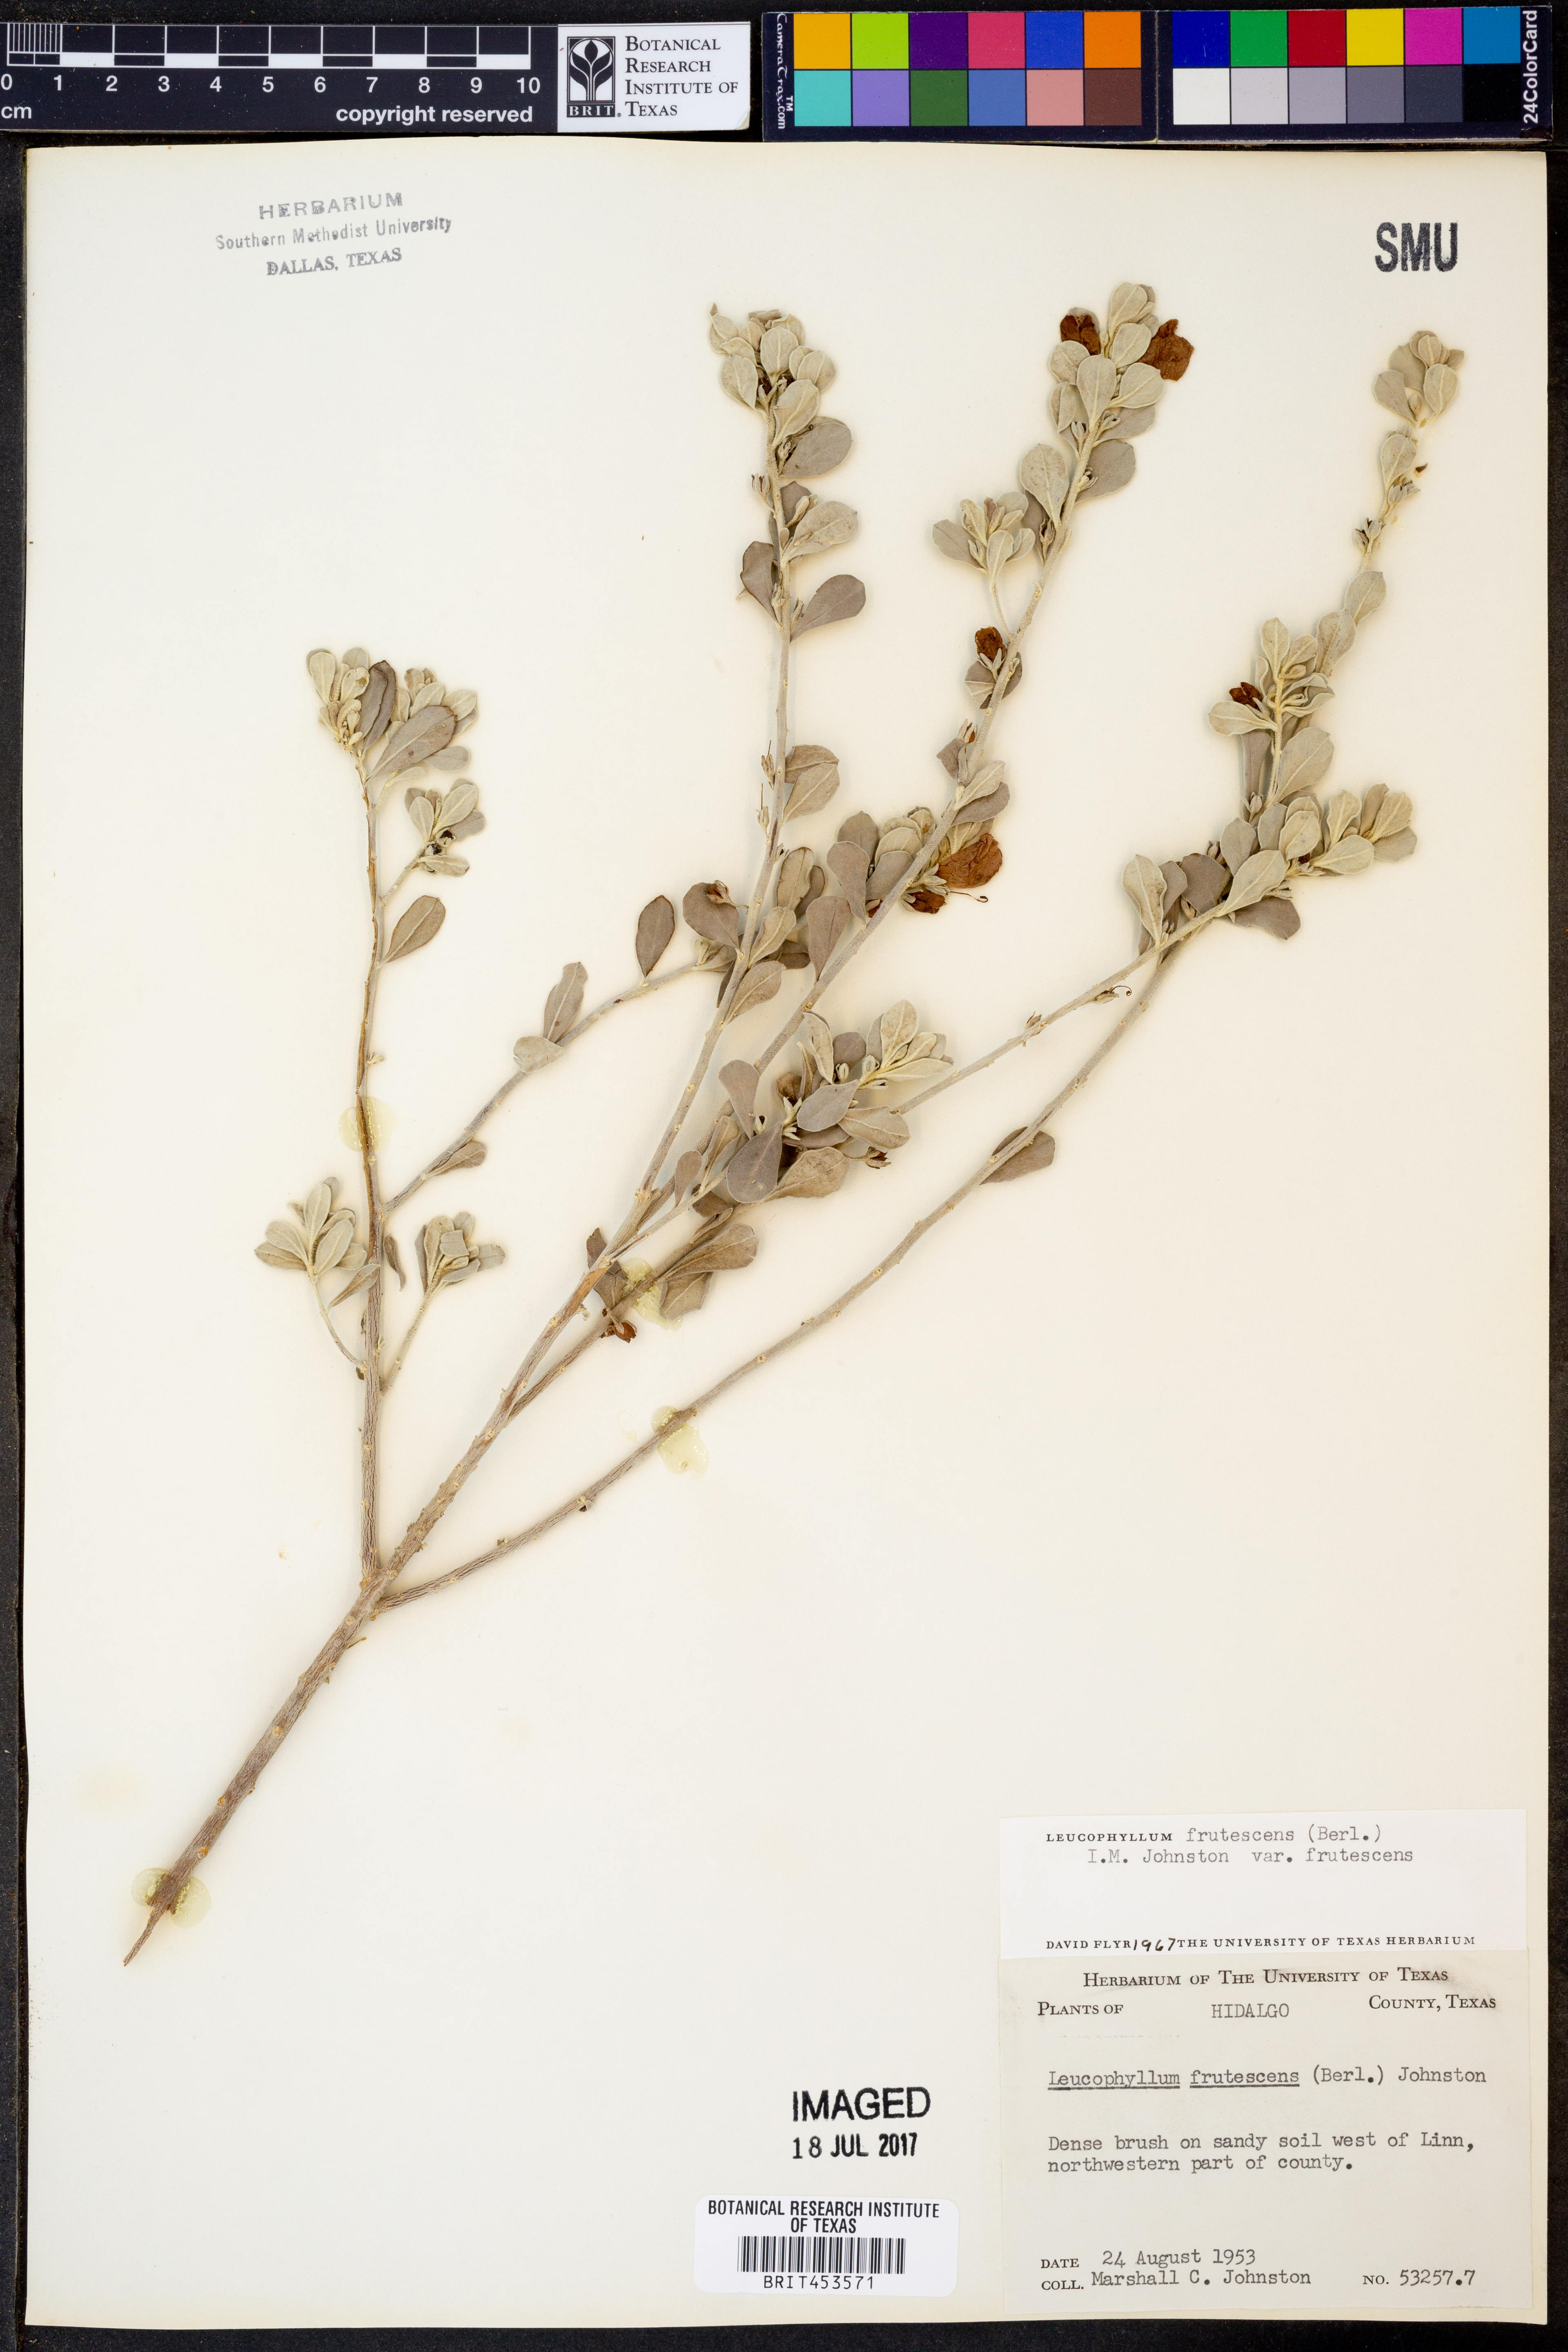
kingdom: Plantae
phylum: Tracheophyta
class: Magnoliopsida
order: Lamiales
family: Scrophulariaceae
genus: Leucophyllum
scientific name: Leucophyllum frutescens
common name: Texas silverleaf
